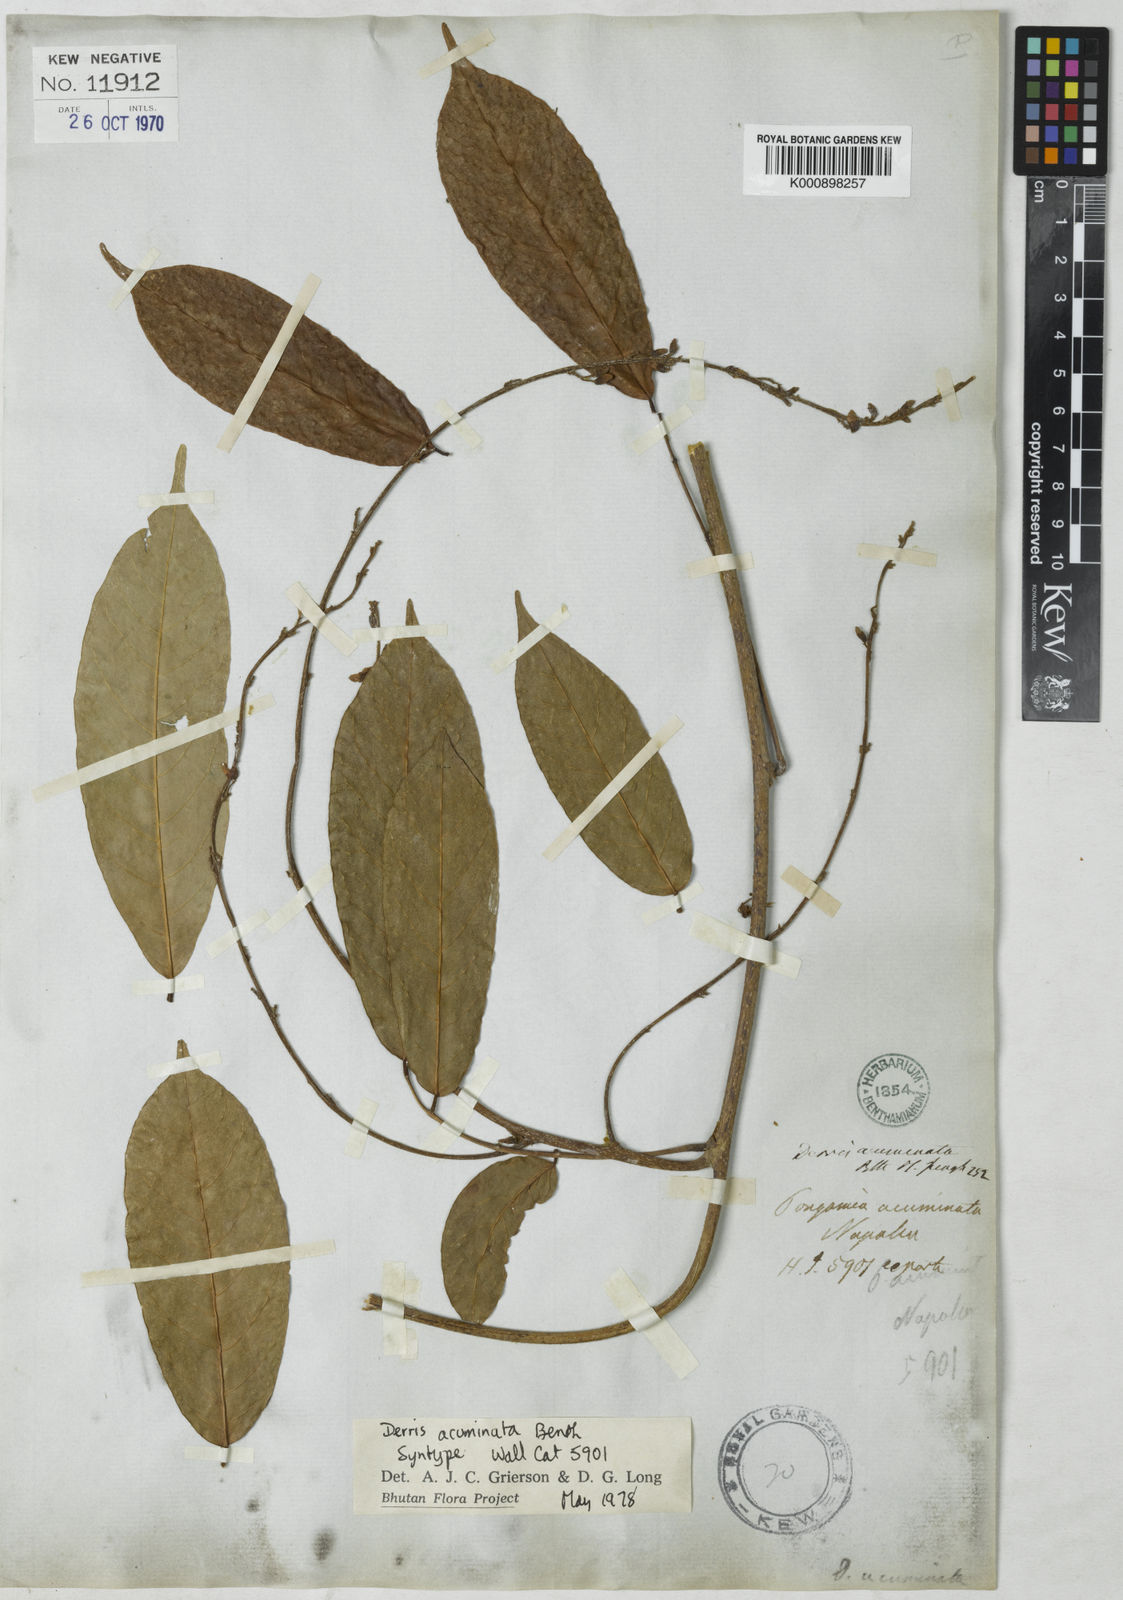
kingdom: Plantae
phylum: Tracheophyta
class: Magnoliopsida
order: Fabales
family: Fabaceae
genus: Derris
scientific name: Derris acuminata
